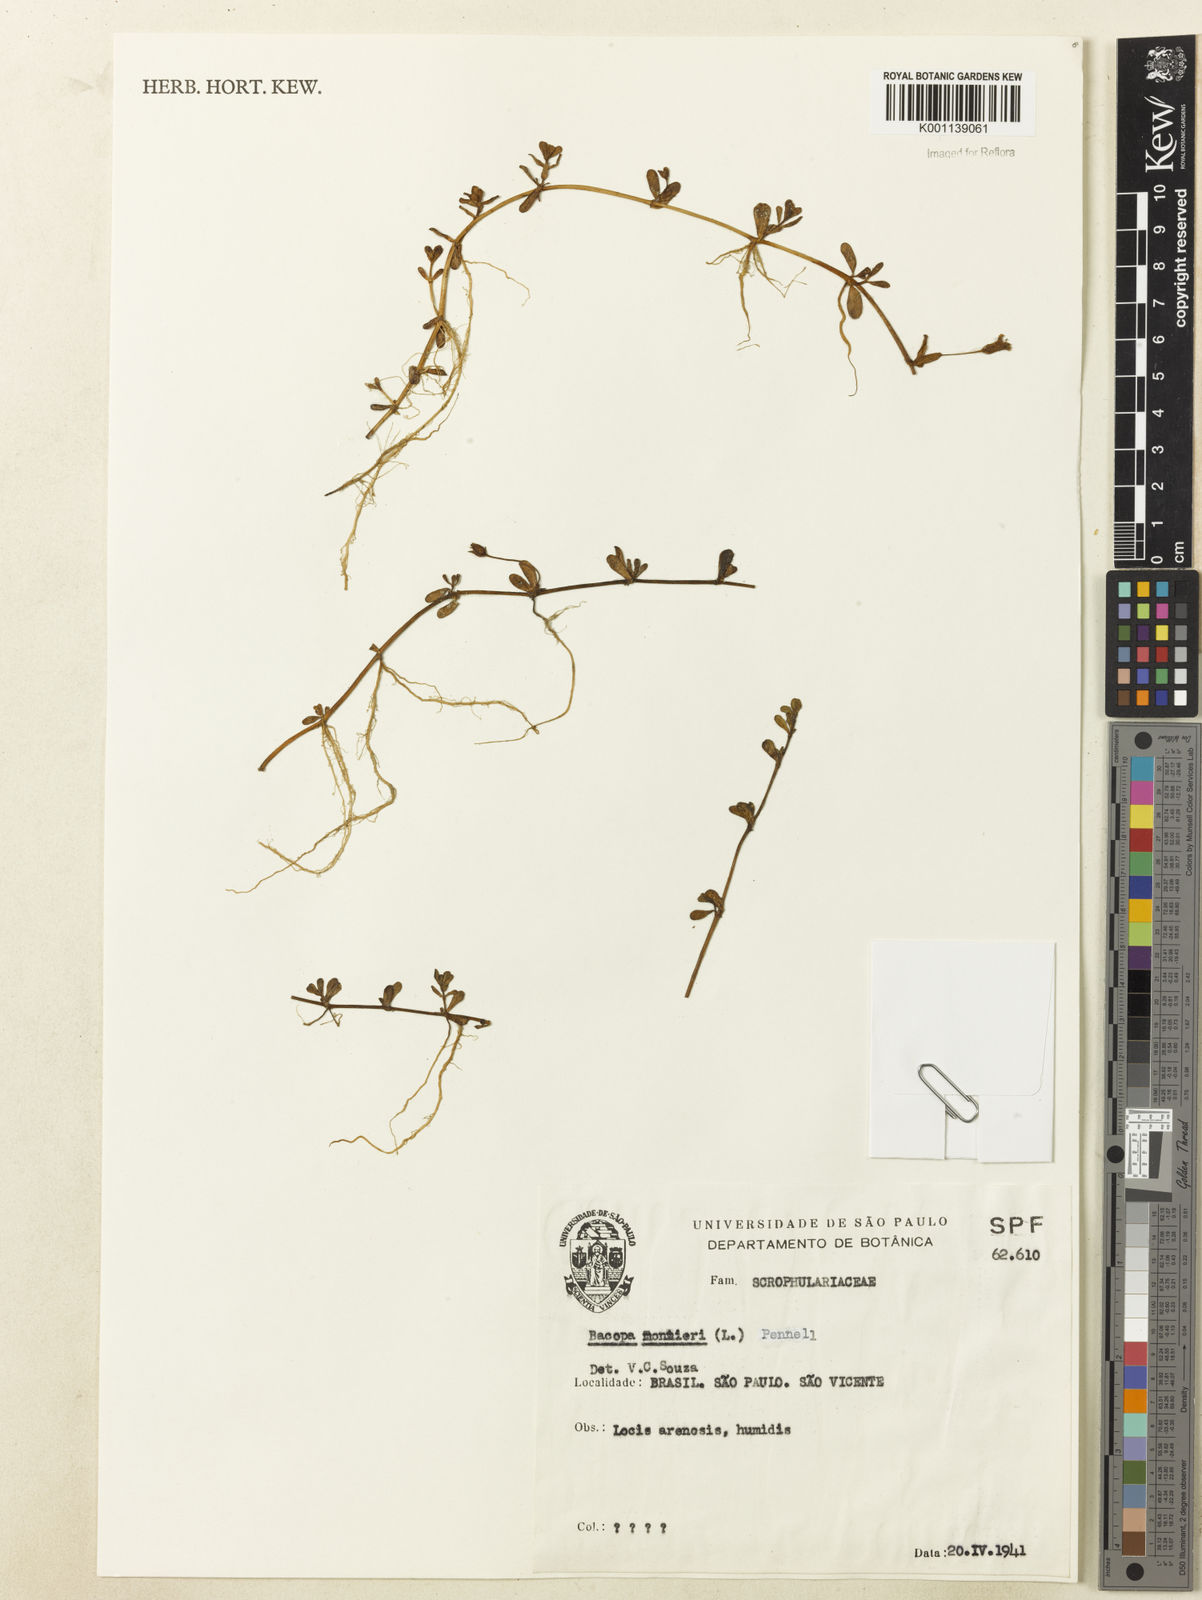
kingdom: Plantae
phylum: Tracheophyta
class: Magnoliopsida
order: Lamiales
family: Plantaginaceae
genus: Bacopa
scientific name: Bacopa
